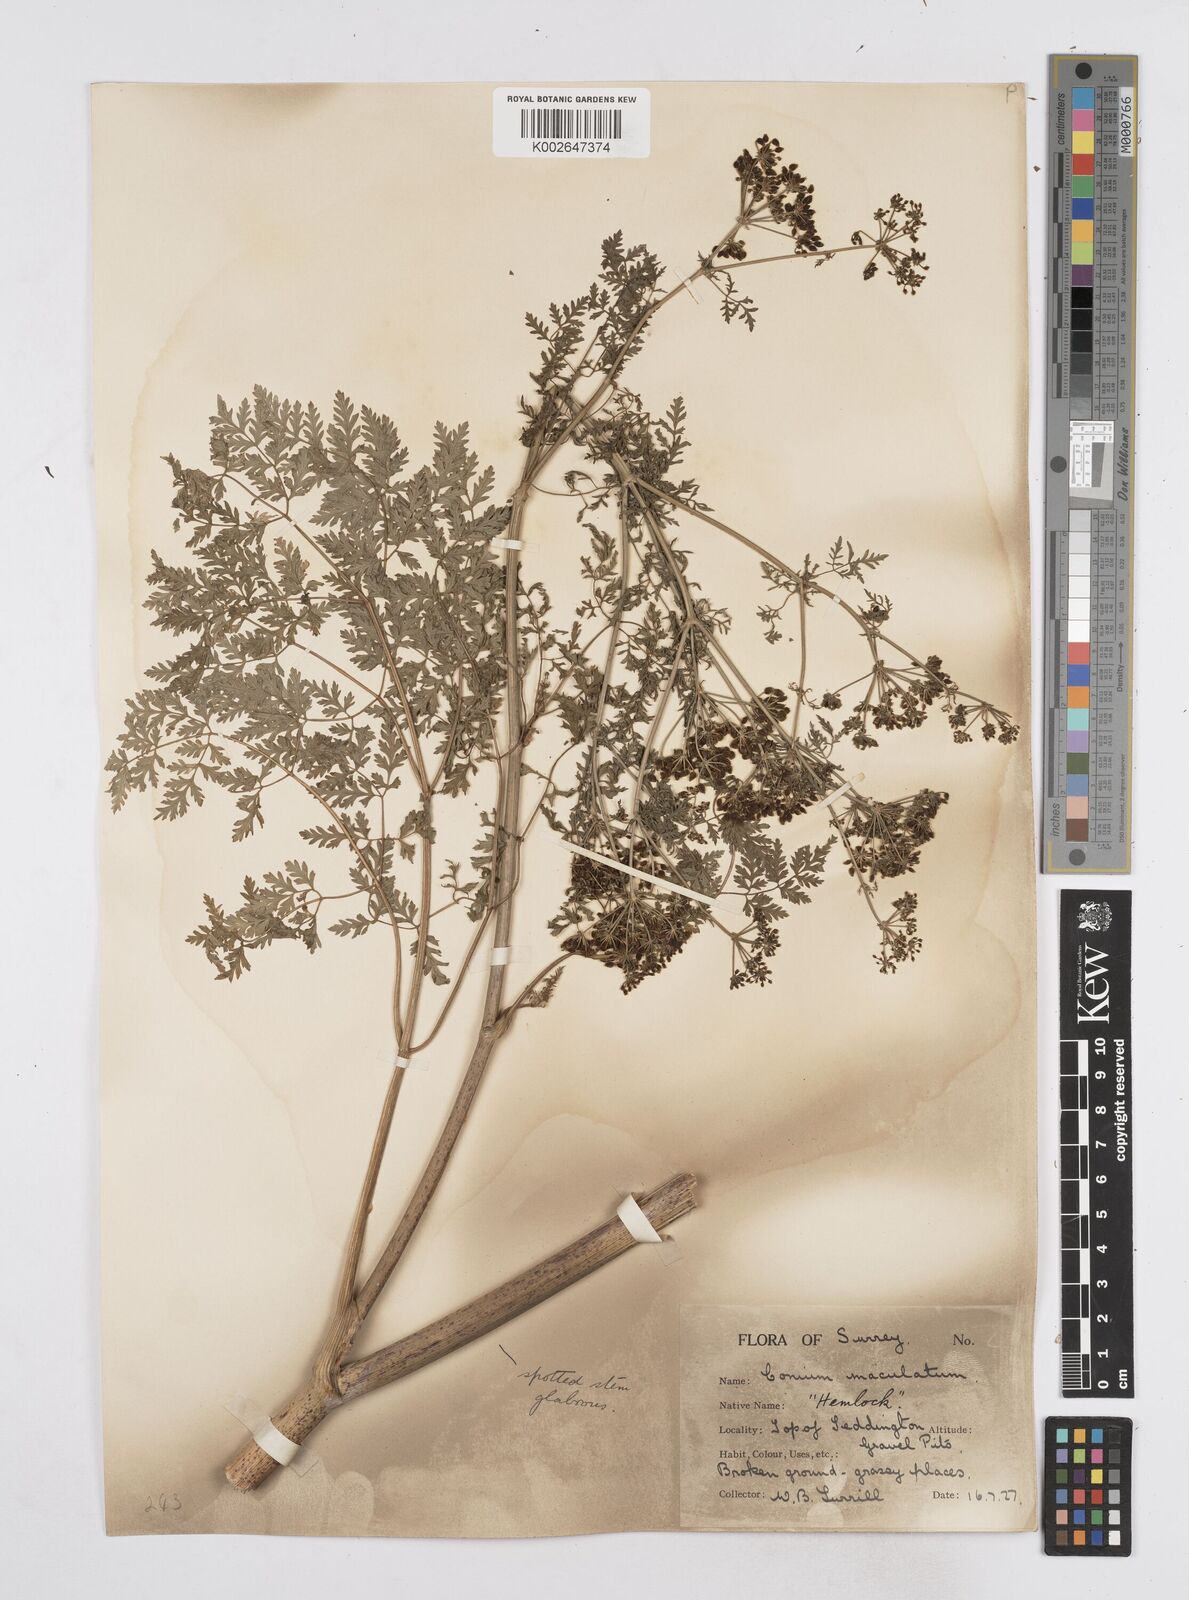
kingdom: Plantae
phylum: Tracheophyta
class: Magnoliopsida
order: Apiales
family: Apiaceae
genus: Conium
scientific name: Conium maculatum
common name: Hemlock
